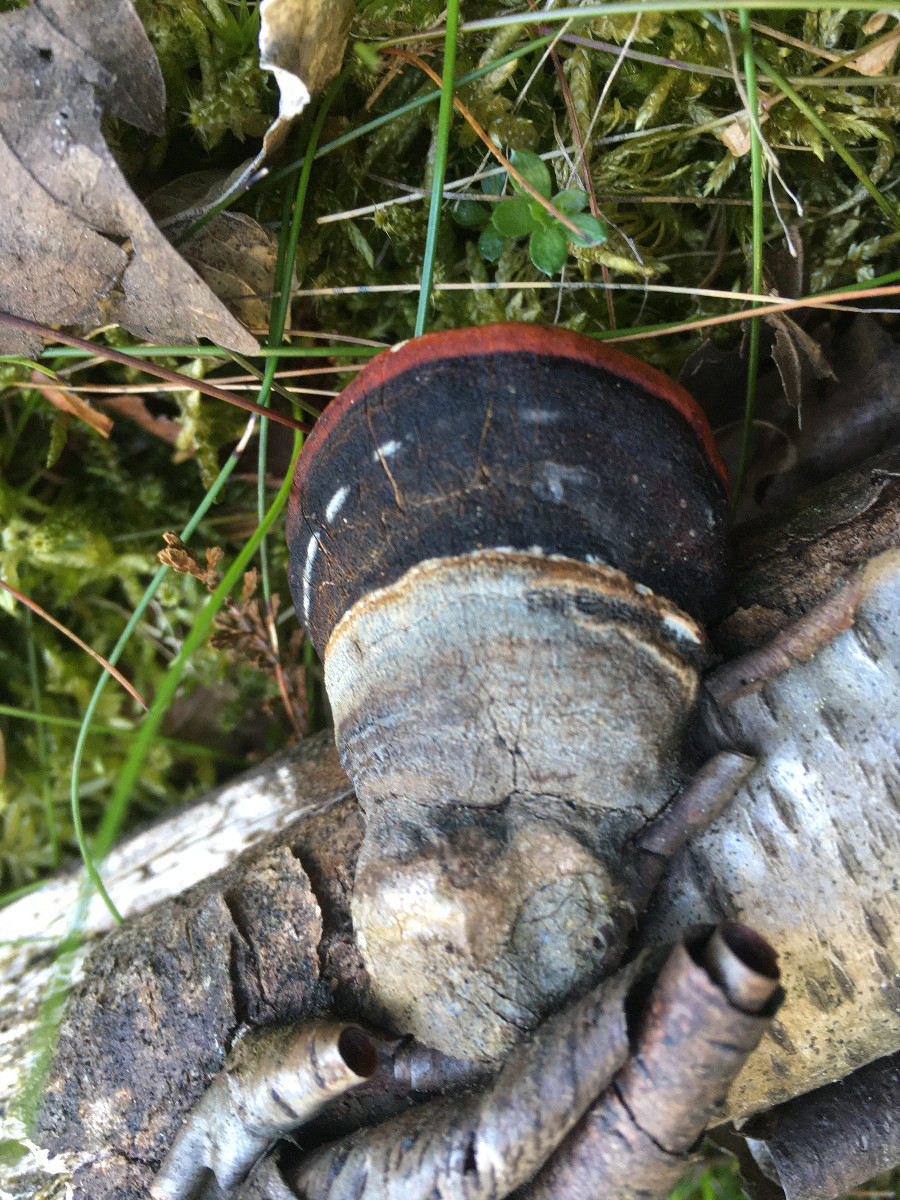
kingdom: Fungi
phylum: Basidiomycota
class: Agaricomycetes
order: Polyporales
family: Fomitopsidaceae
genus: Fomitopsis
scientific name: Fomitopsis pinicola
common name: randbæltet hovporesvamp
